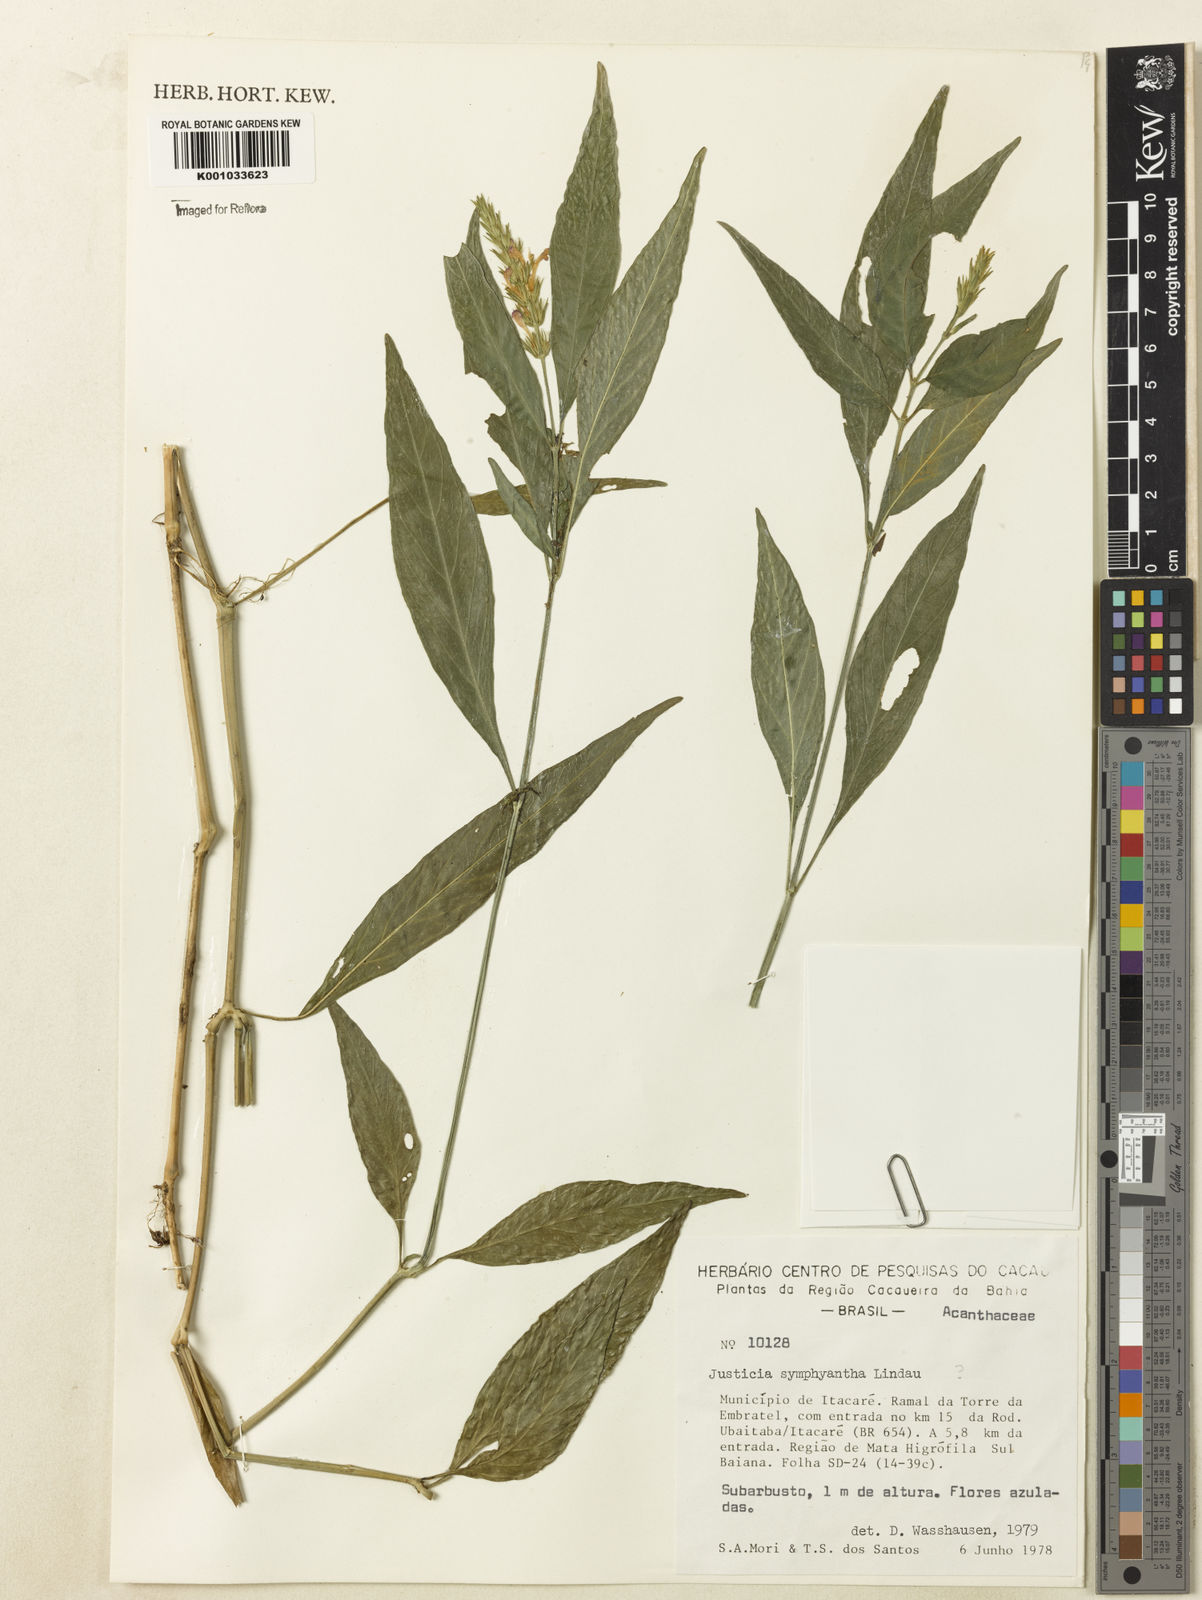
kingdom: Plantae
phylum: Tracheophyta
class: Magnoliopsida
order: Lamiales
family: Acanthaceae
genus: Justicia
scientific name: Justicia symphyantha
